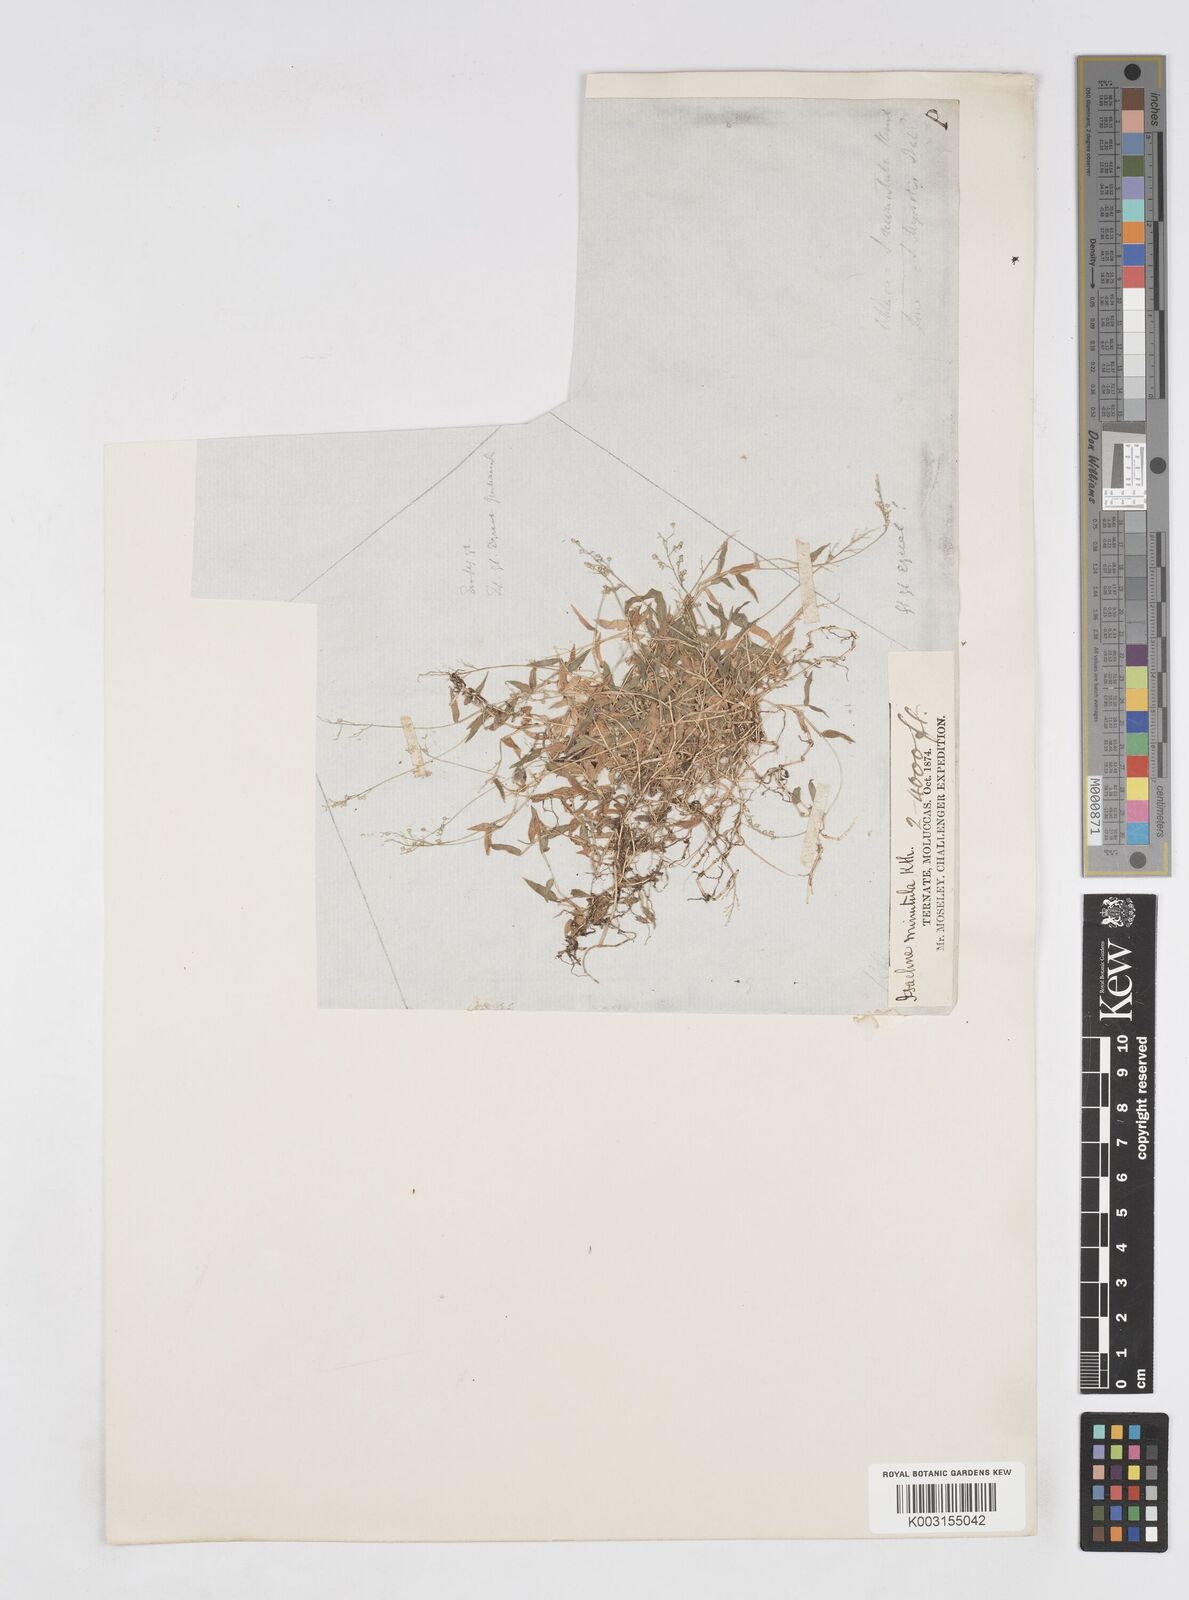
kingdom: Plantae
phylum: Tracheophyta
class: Liliopsida
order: Poales
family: Poaceae
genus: Isachne
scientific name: Isachne myosotis
